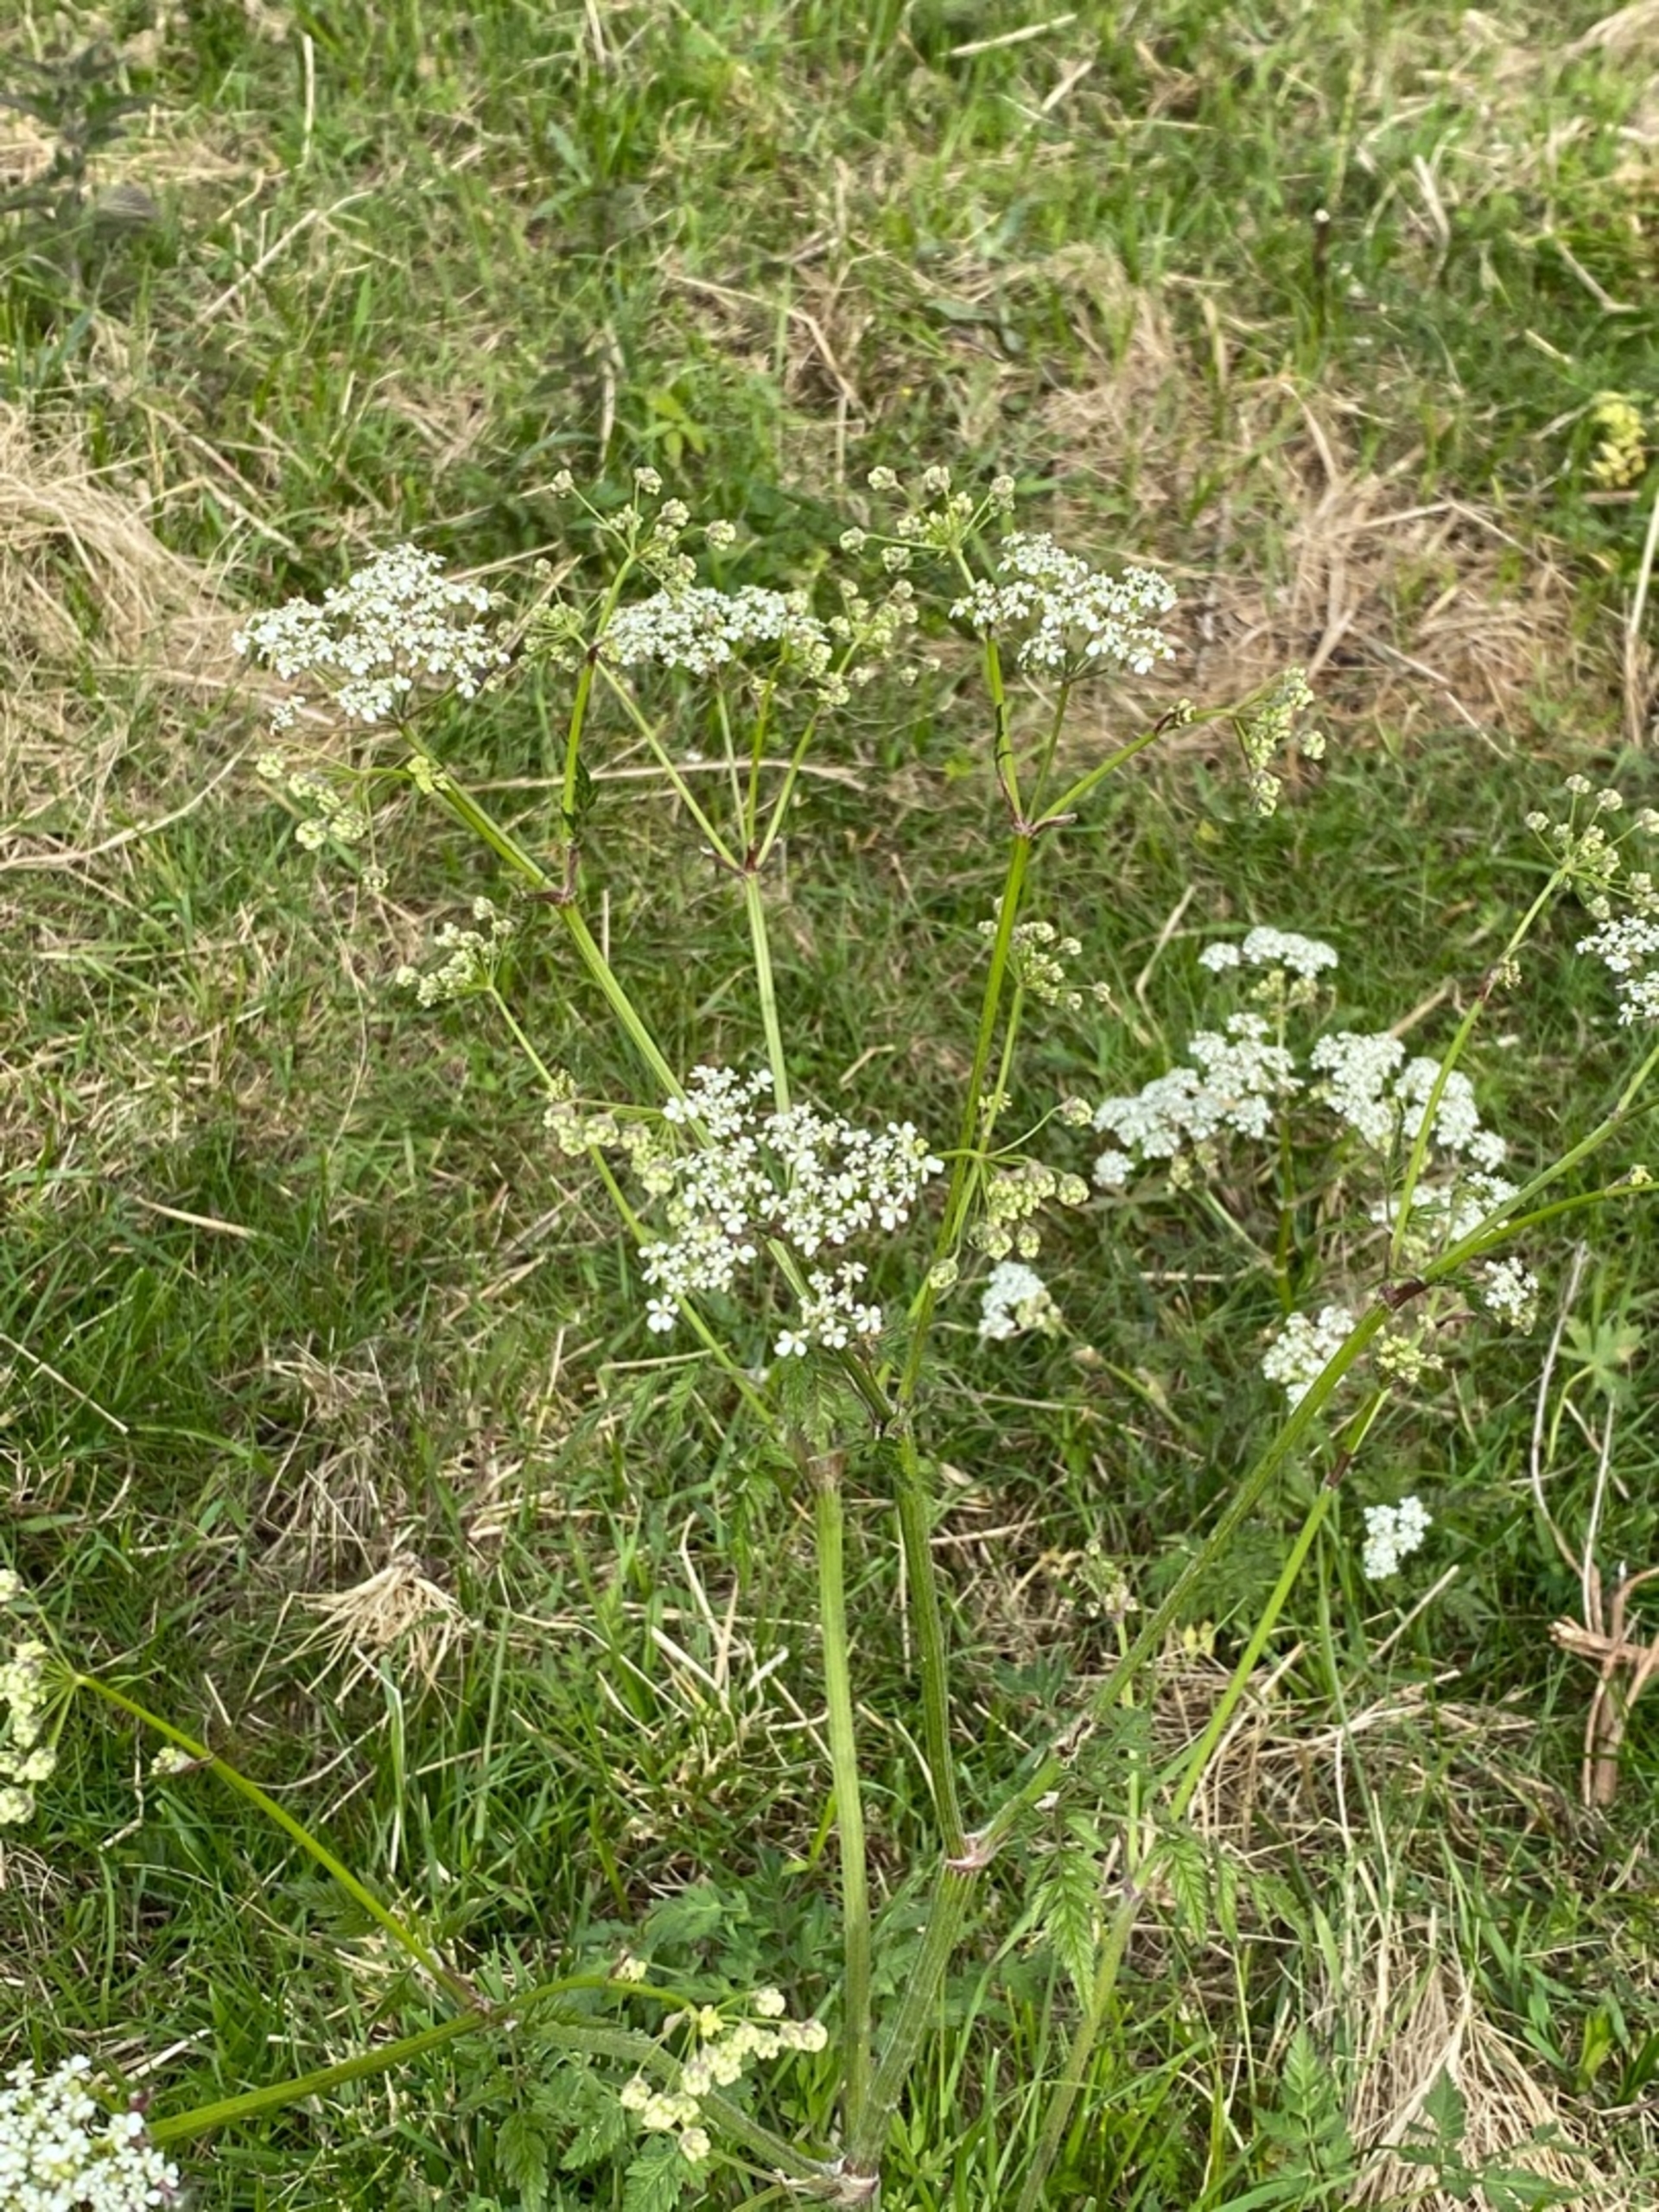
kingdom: Plantae
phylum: Tracheophyta
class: Magnoliopsida
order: Apiales
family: Apiaceae
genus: Anthriscus
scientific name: Anthriscus sylvestris
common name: Vild kørvel
